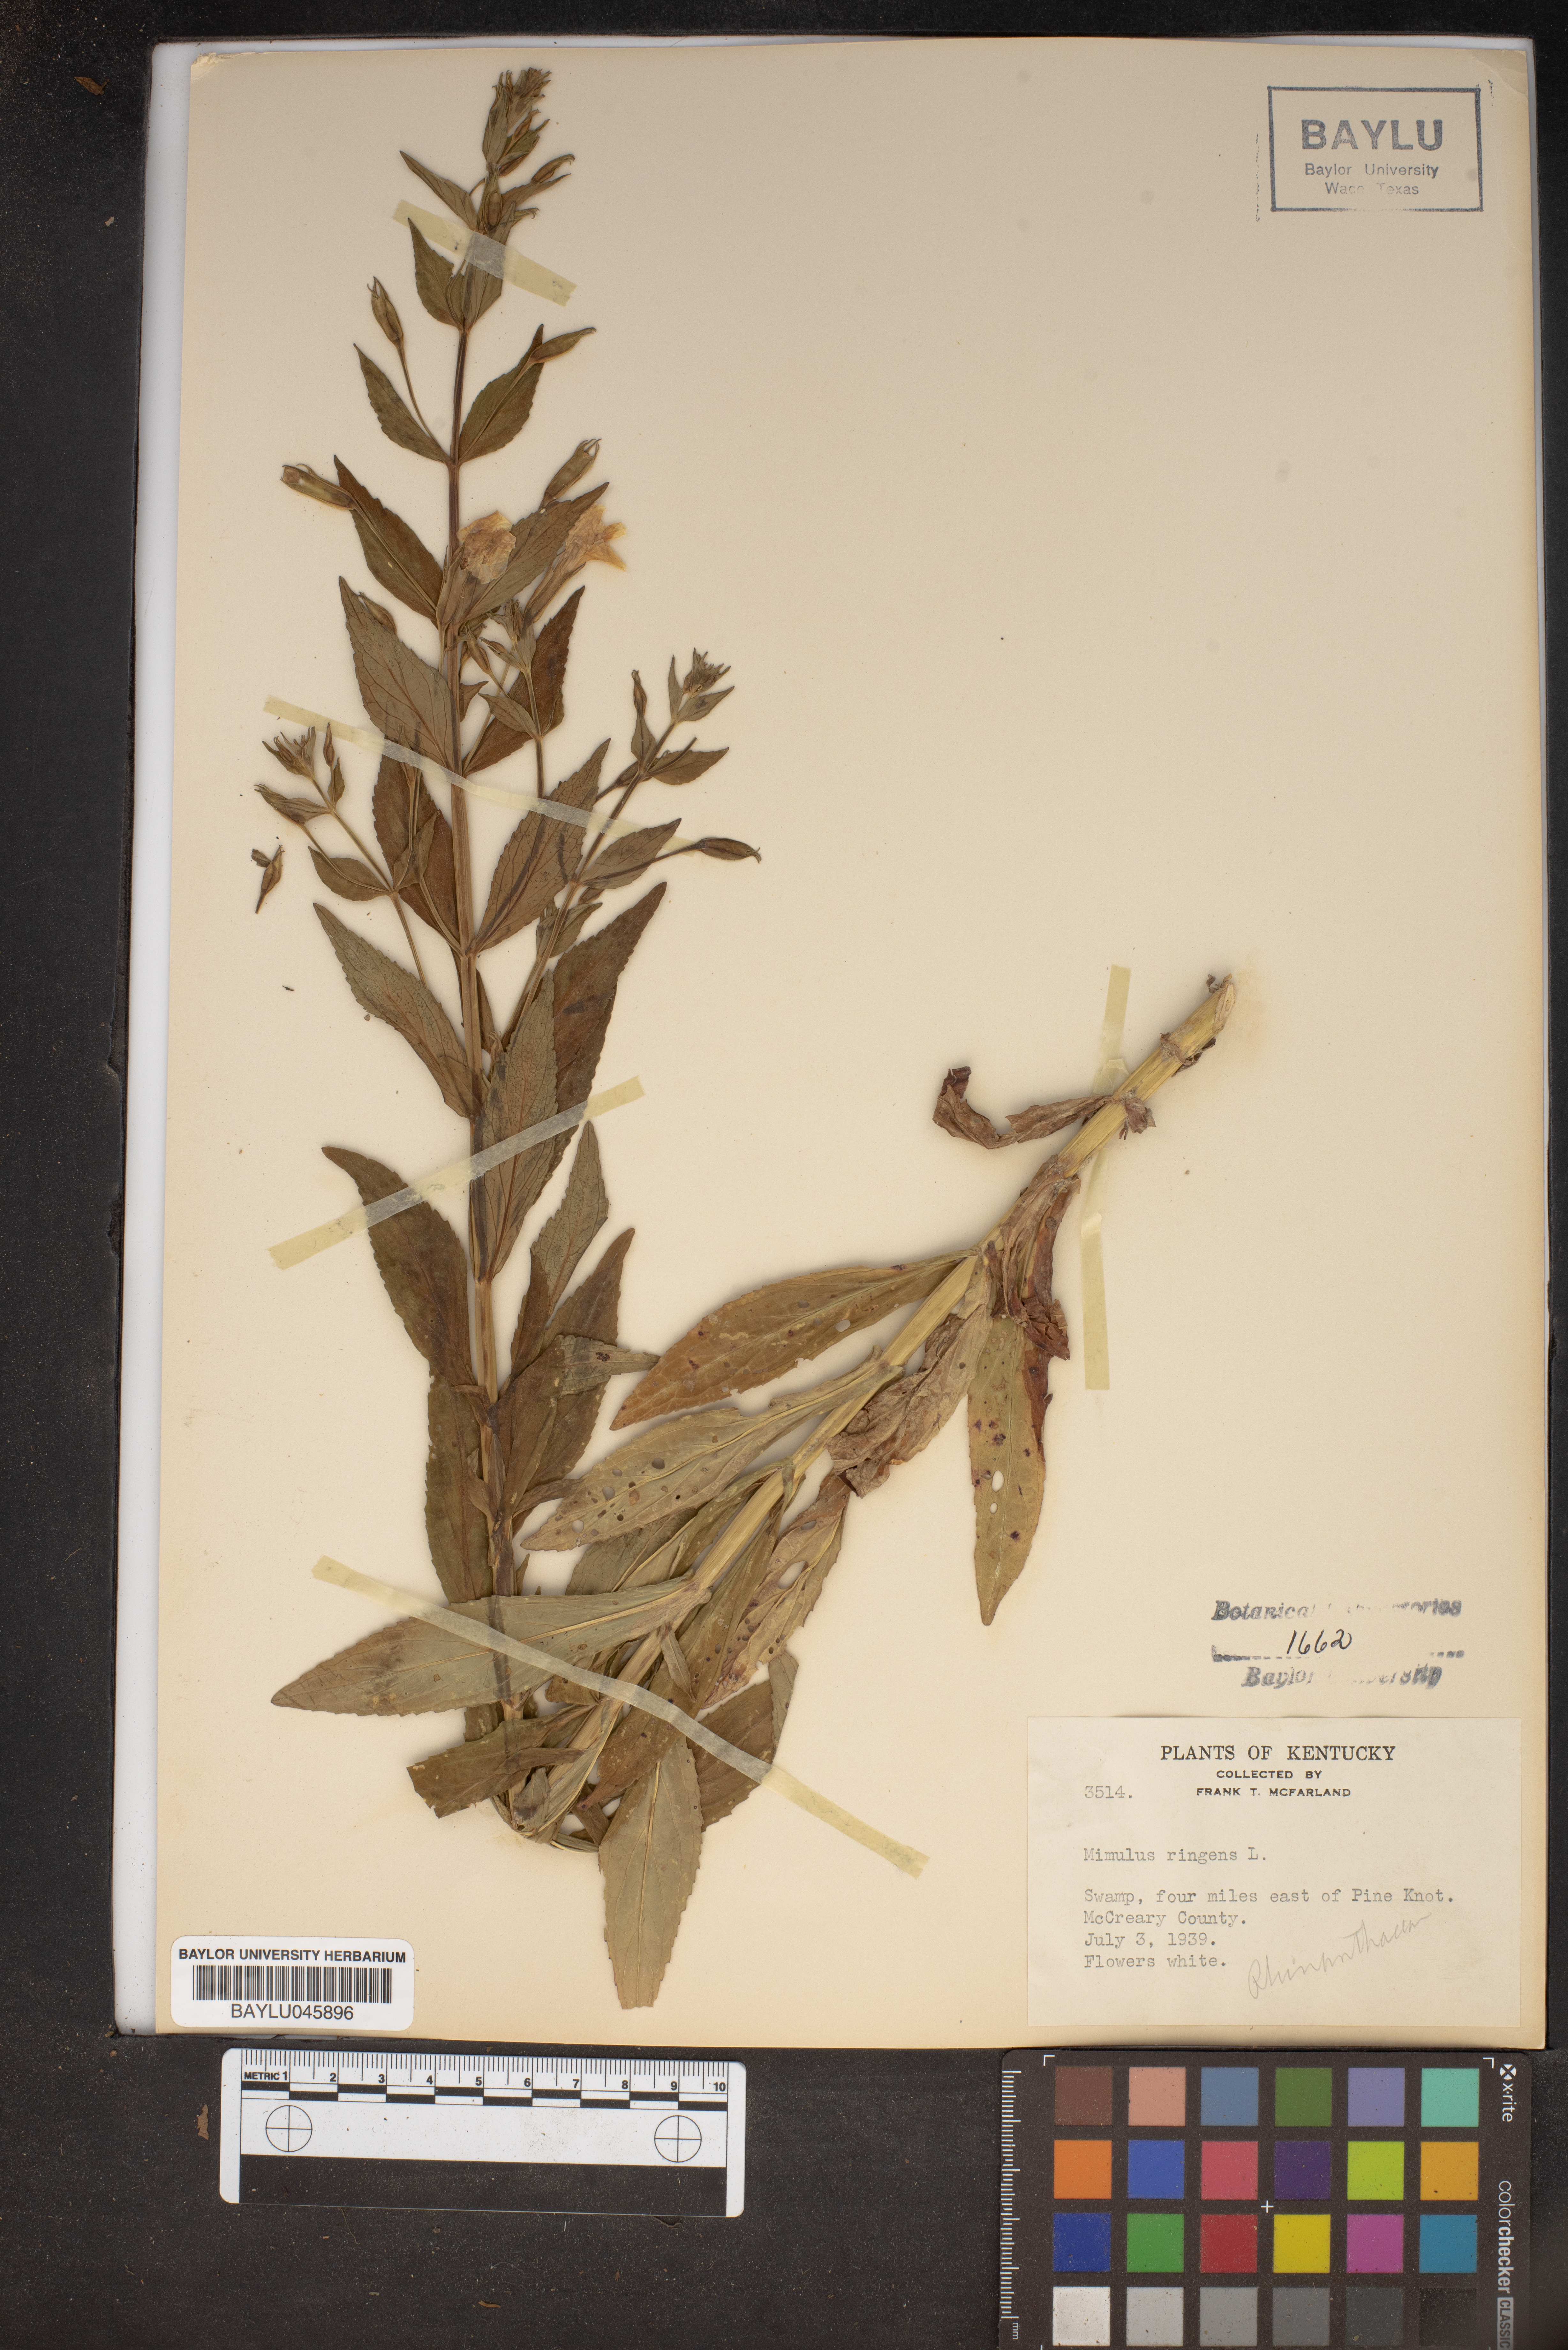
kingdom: Plantae
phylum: Tracheophyta
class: Magnoliopsida
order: Lamiales
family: Phrymaceae
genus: Mimulus
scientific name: Mimulus ringens
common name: Allegheny monkeyflower
